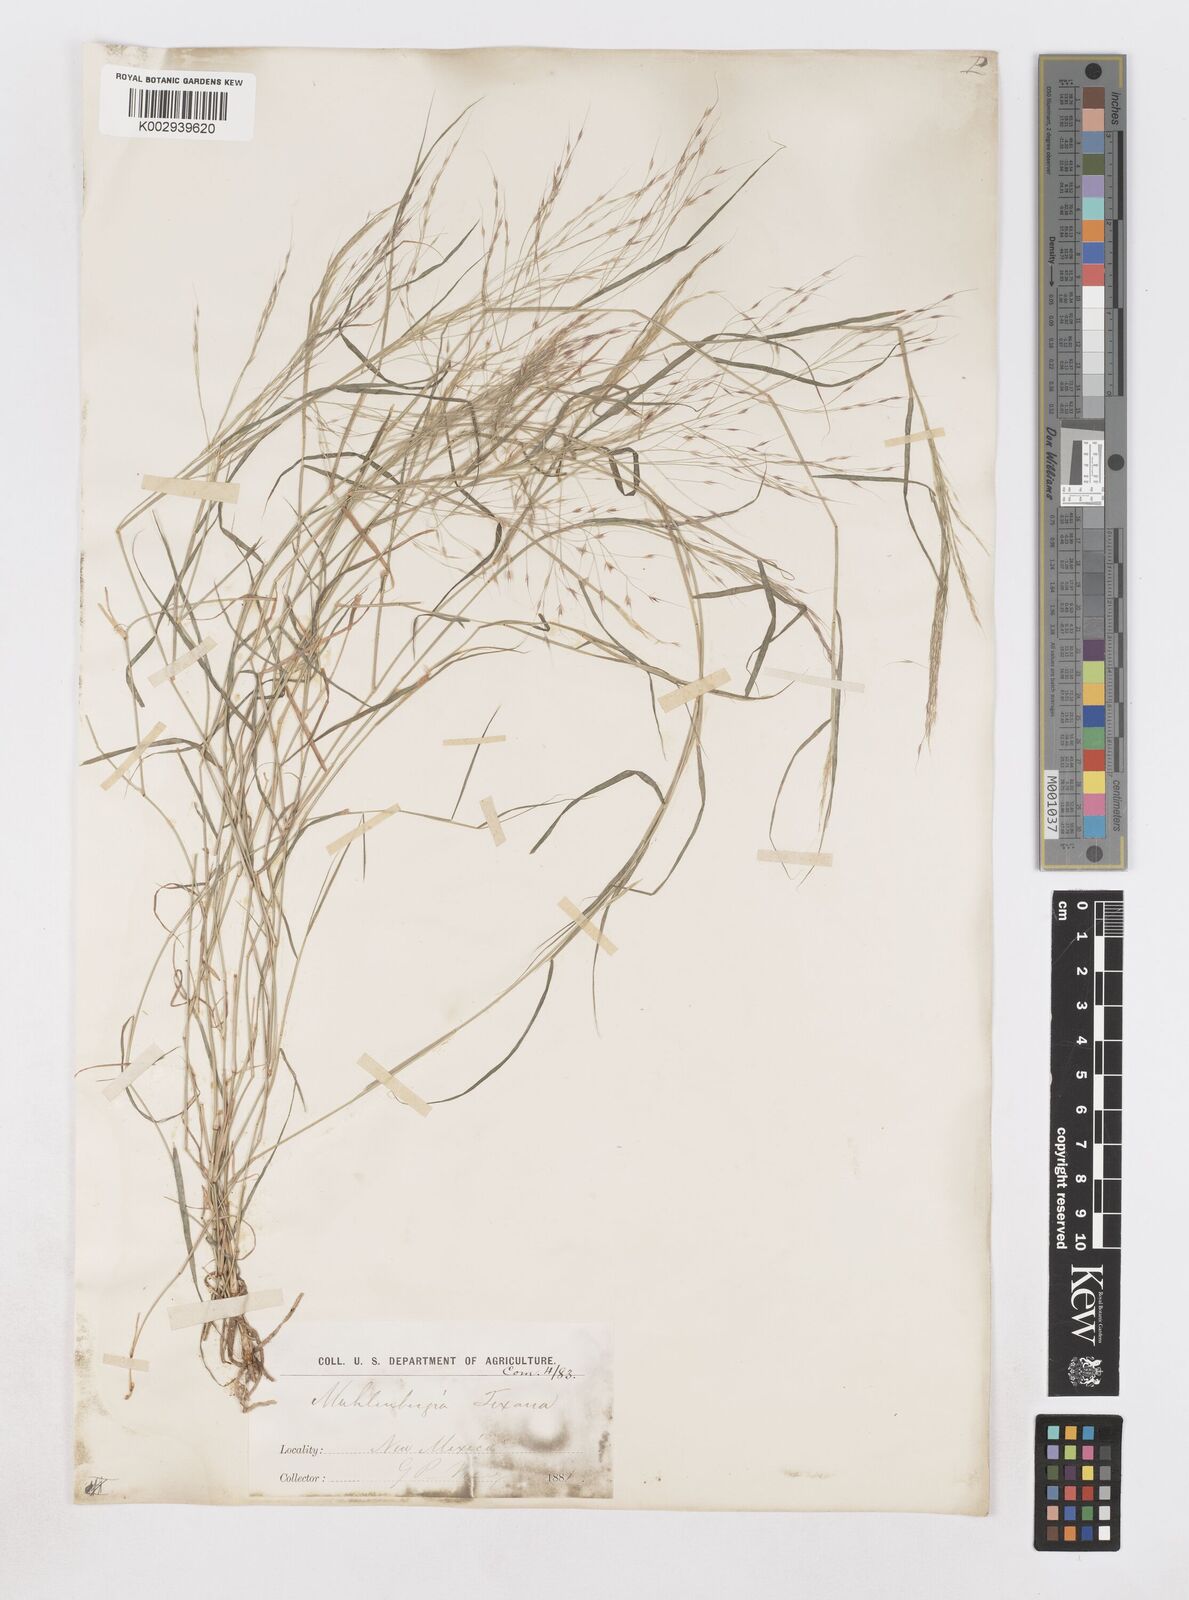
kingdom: Plantae
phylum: Tracheophyta
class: Liliopsida
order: Poales
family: Poaceae
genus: Muhlenbergia
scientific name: Muhlenbergia porteri
